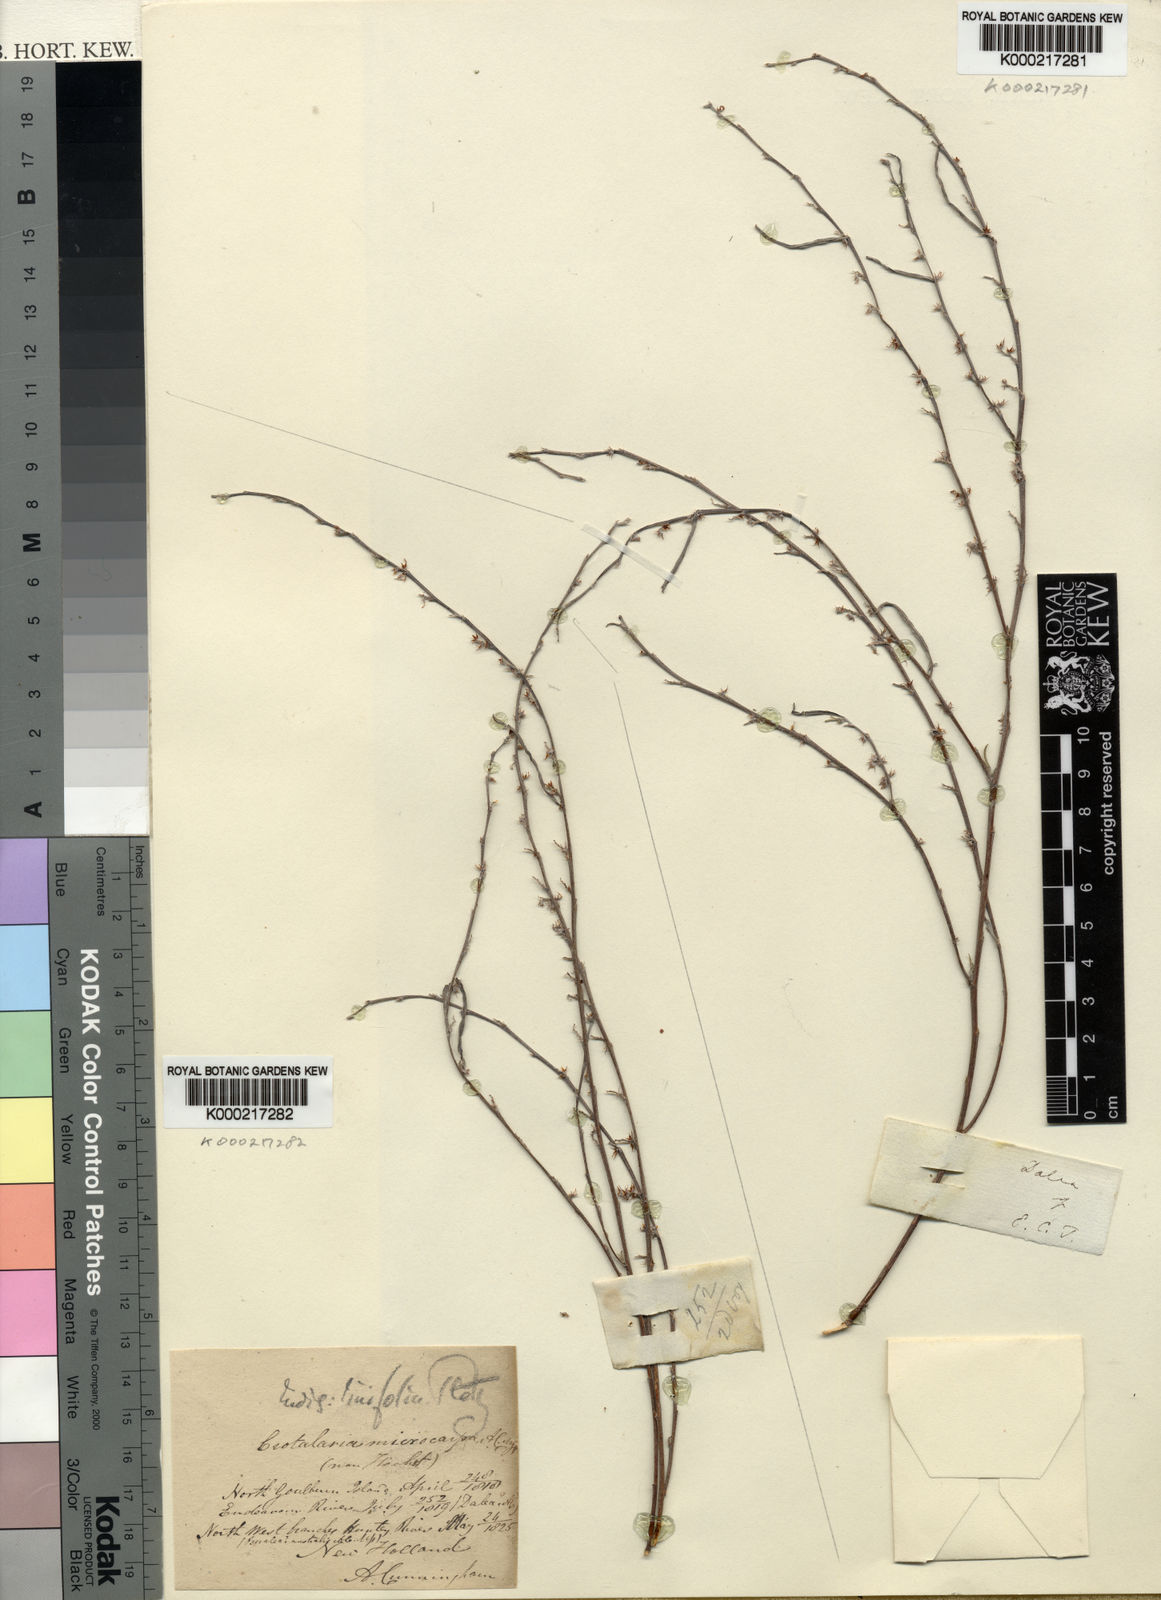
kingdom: Plantae
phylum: Tracheophyta
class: Magnoliopsida
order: Fabales
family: Fabaceae
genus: Dalea
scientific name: Dalea
